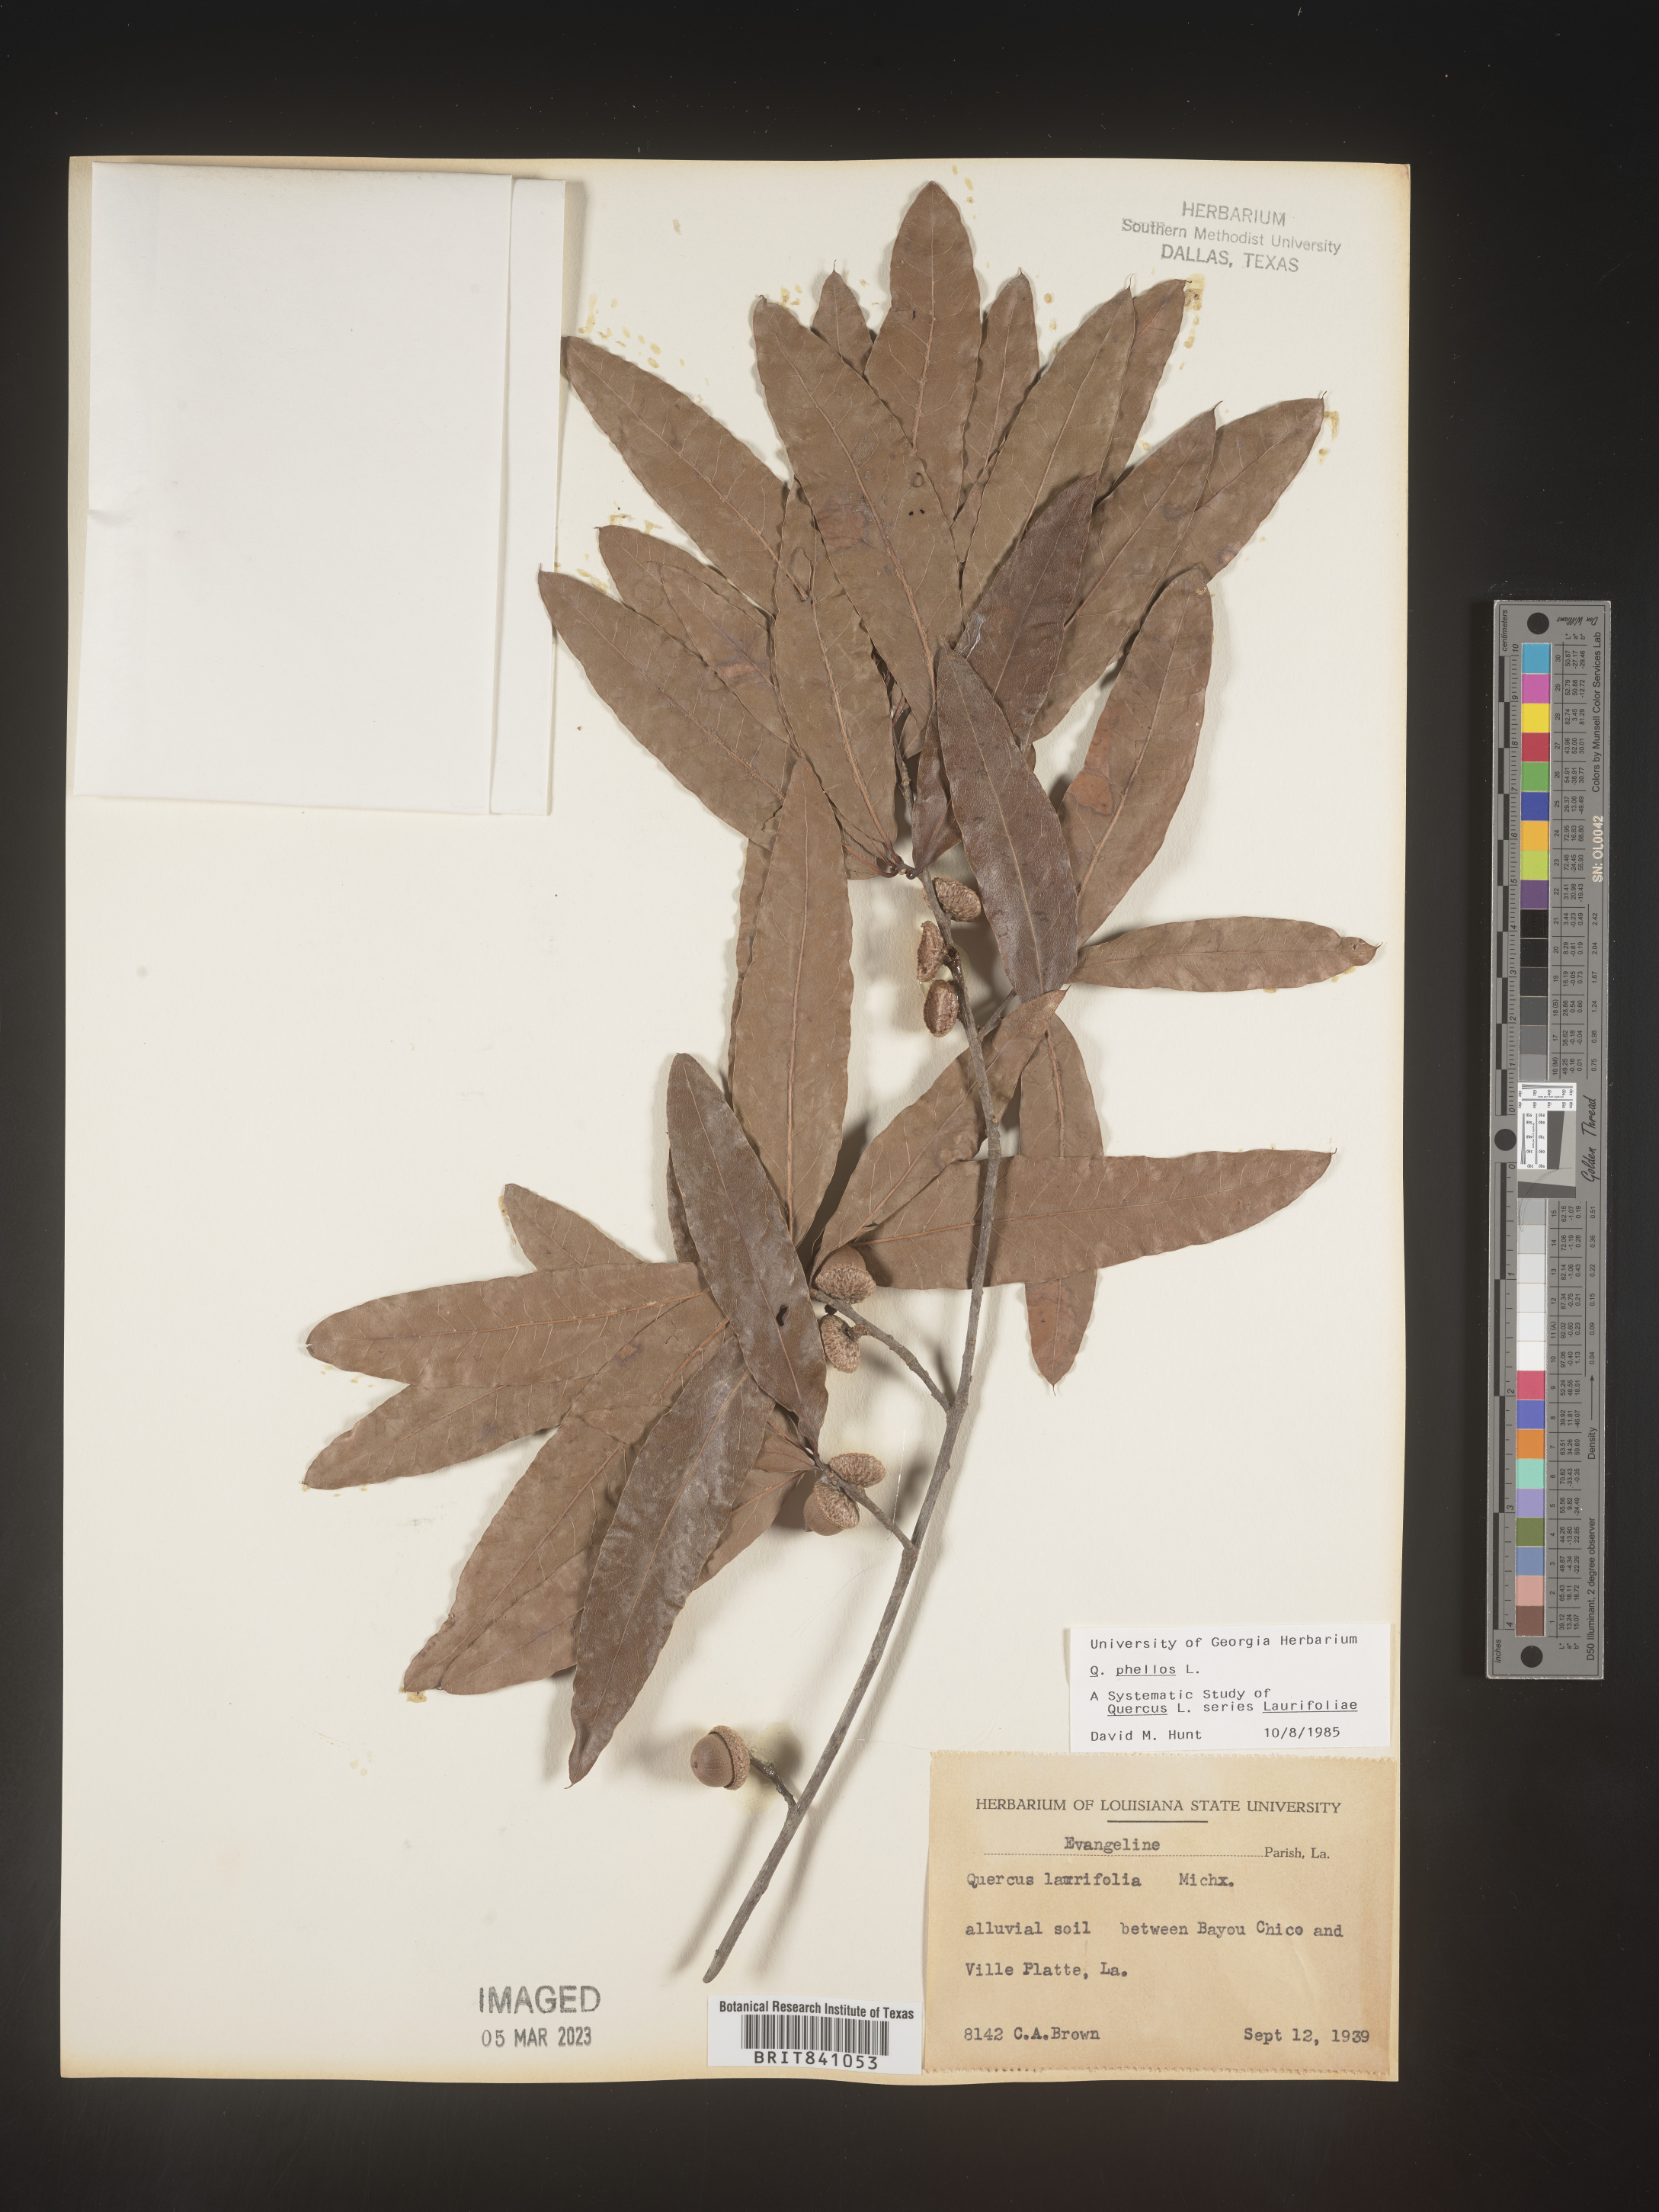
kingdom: Plantae
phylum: Tracheophyta
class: Magnoliopsida
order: Fagales
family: Fagaceae
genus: Quercus
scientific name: Quercus phellos
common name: Willow oak
